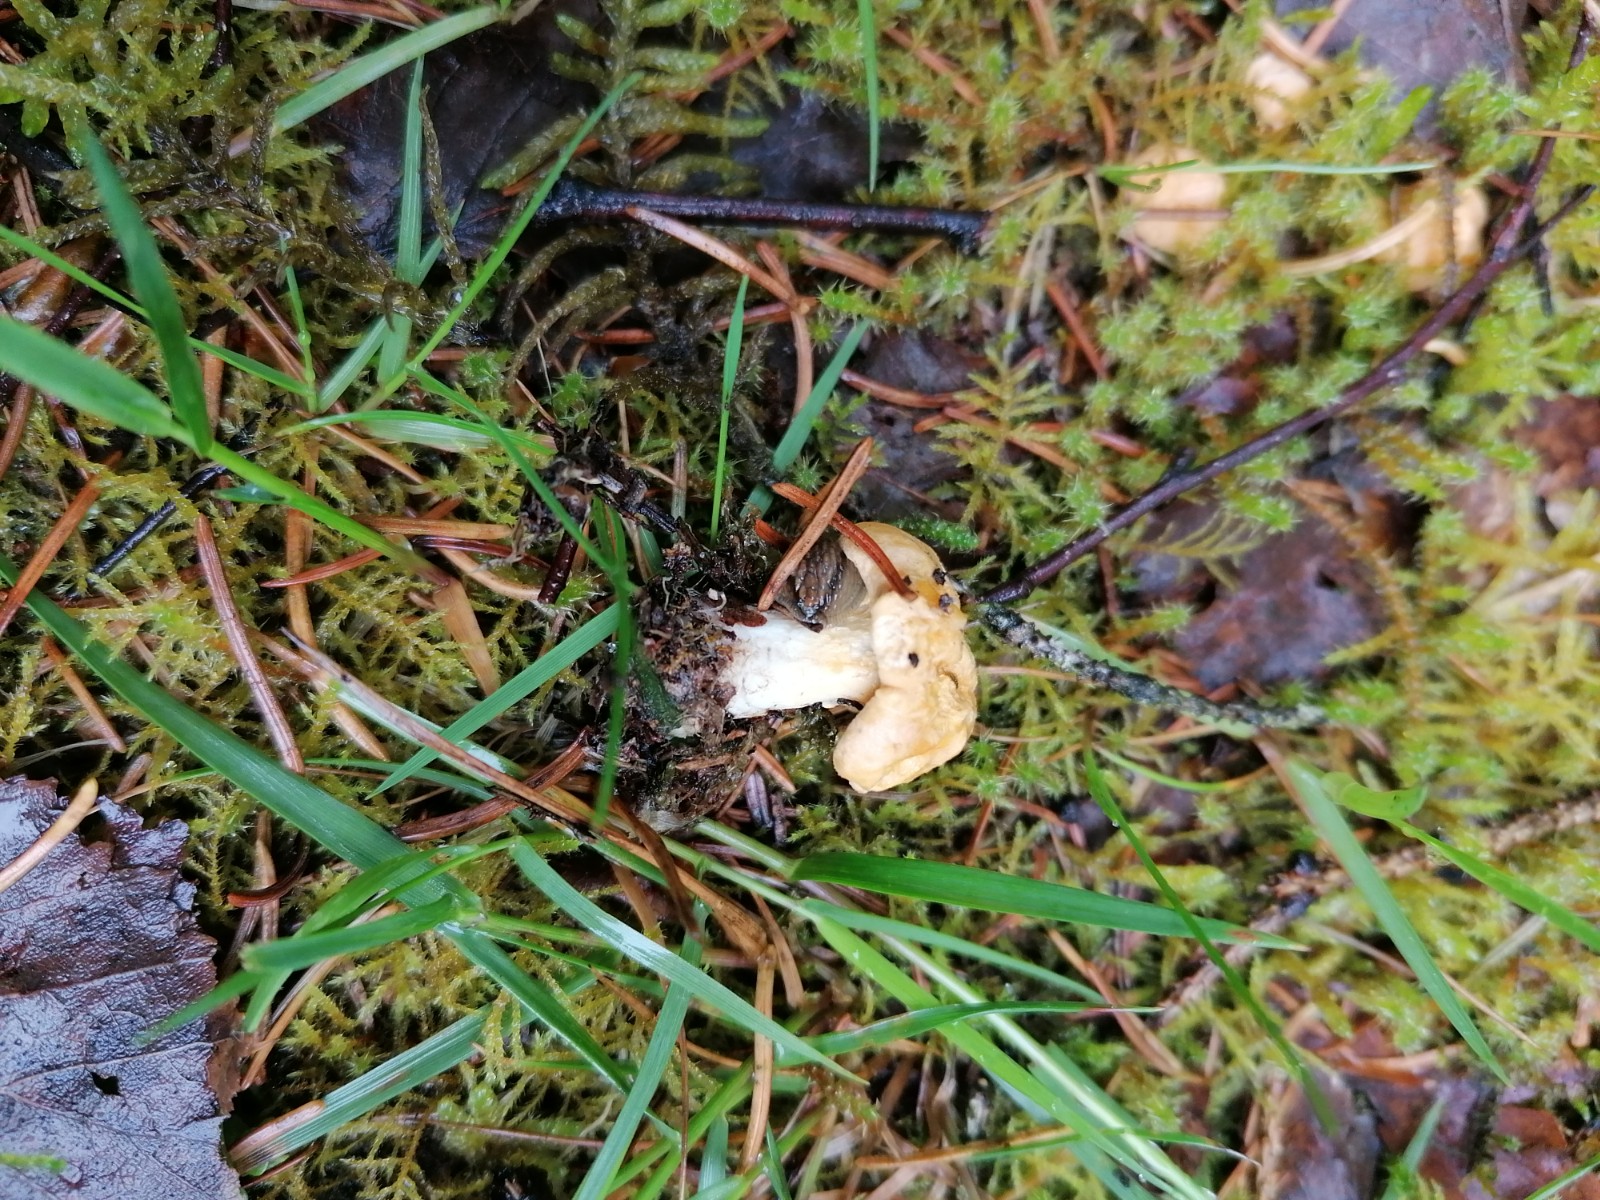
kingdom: Fungi
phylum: Basidiomycota
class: Agaricomycetes
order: Cantharellales
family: Hydnaceae
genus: Cantharellus
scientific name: Cantharellus cibarius
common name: almindelig kantarel
